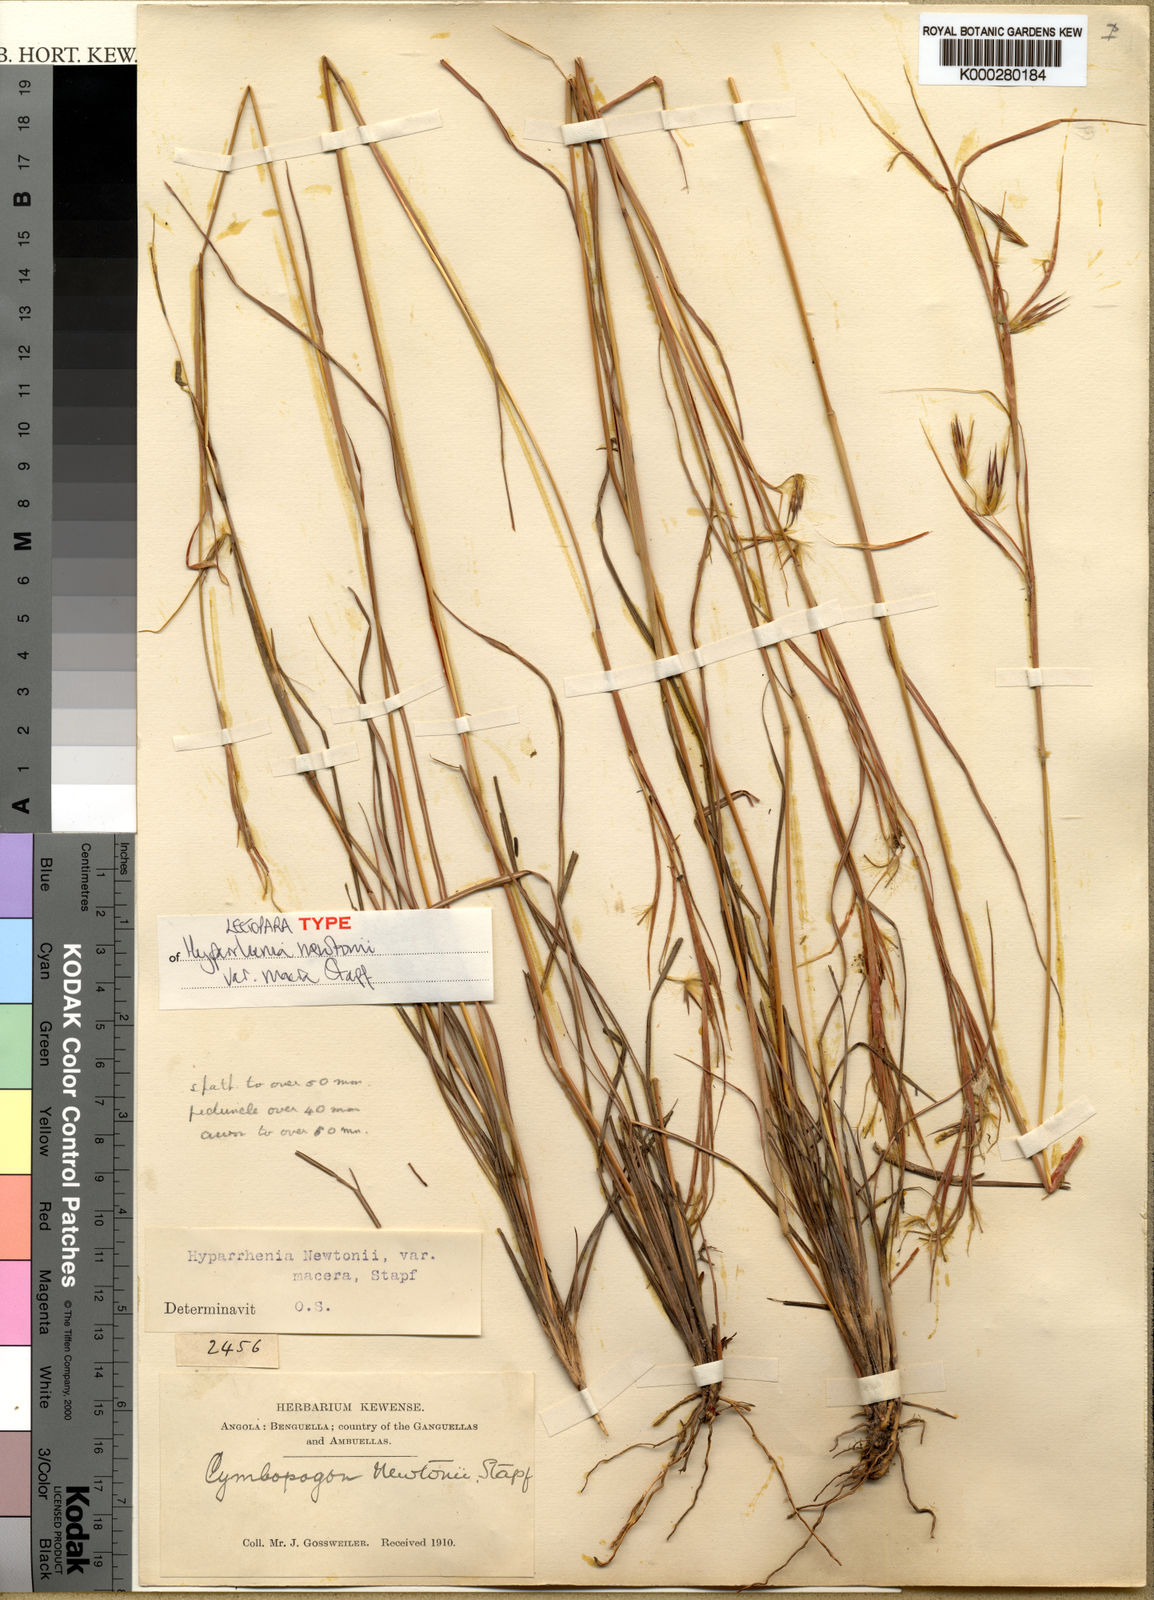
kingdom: Plantae
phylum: Tracheophyta
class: Liliopsida
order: Poales
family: Poaceae
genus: Hyparrhenia
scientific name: Hyparrhenia newtonii
